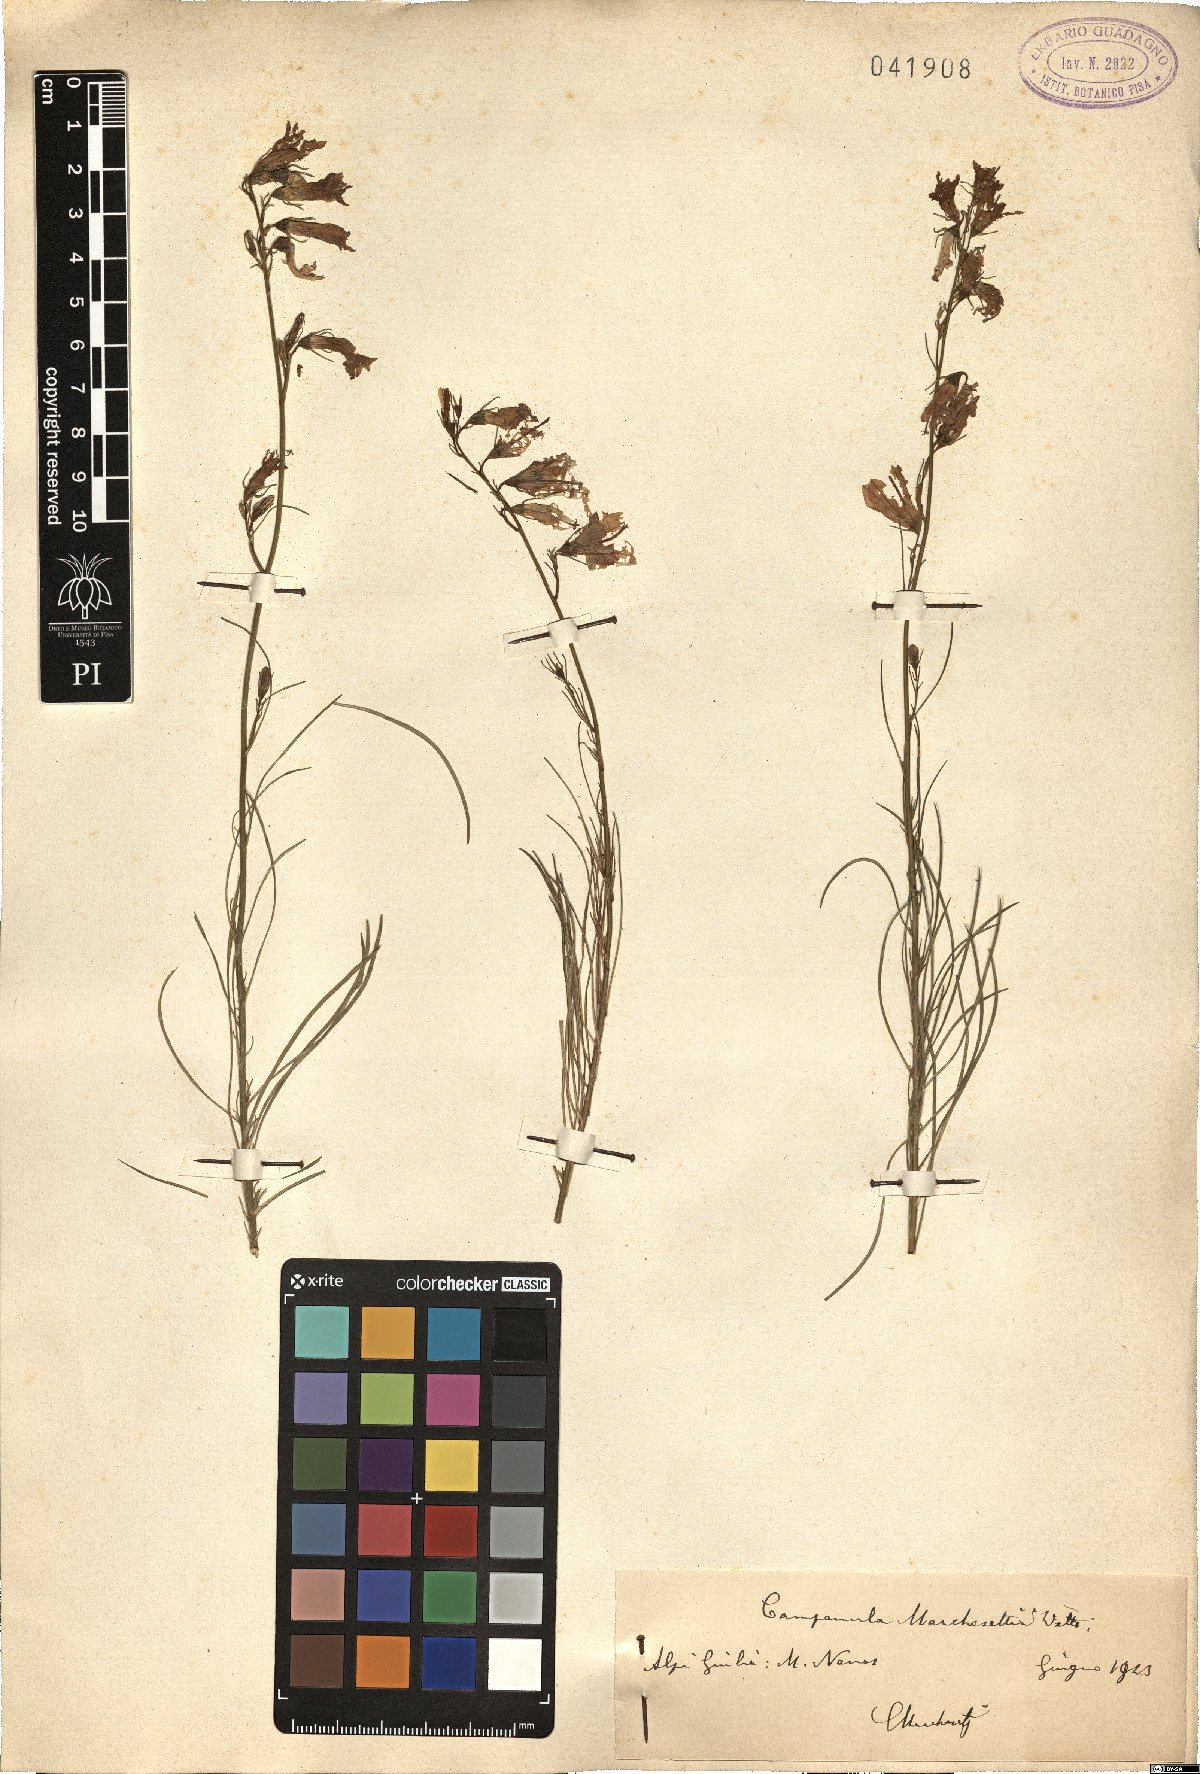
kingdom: Plantae
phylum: Tracheophyta
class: Magnoliopsida
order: Asterales
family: Campanulaceae
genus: Campanula
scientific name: Campanula marchesettii
